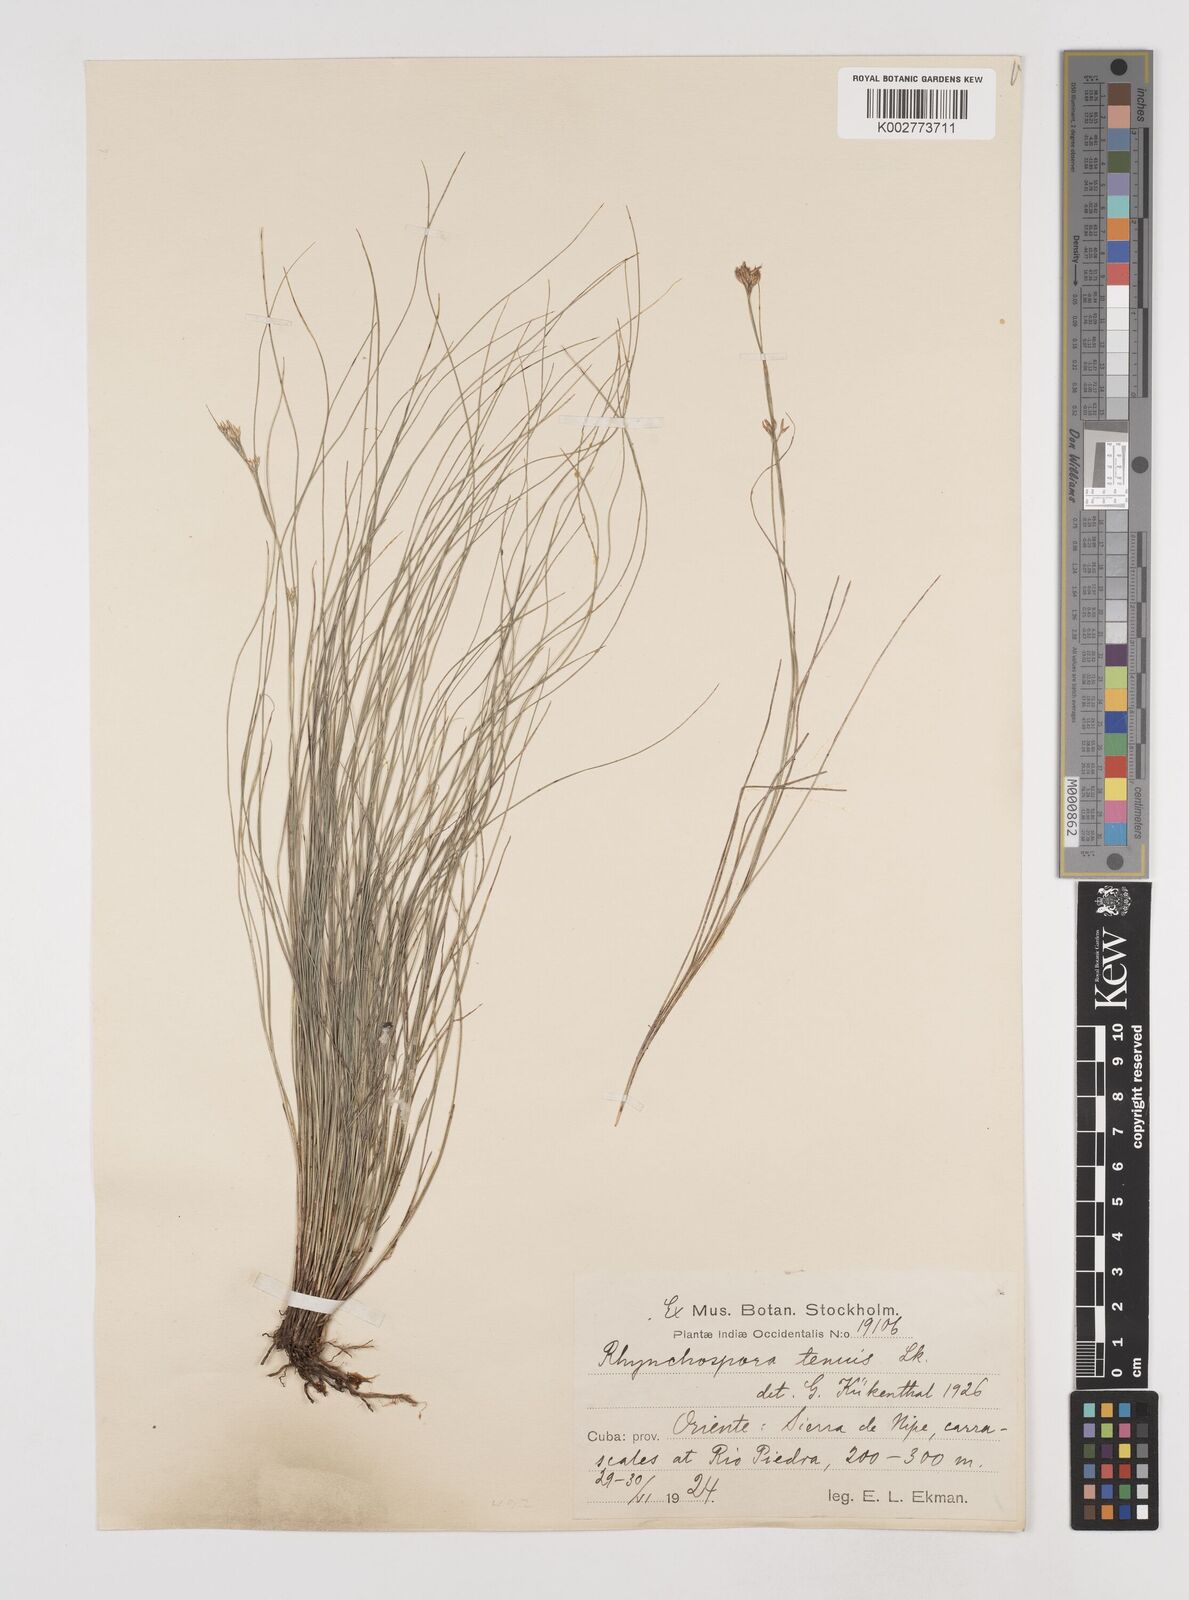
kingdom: Plantae
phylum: Tracheophyta
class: Liliopsida
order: Poales
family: Cyperaceae
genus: Rhynchospora
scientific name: Rhynchospora tenuis
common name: Quill beaksedge
